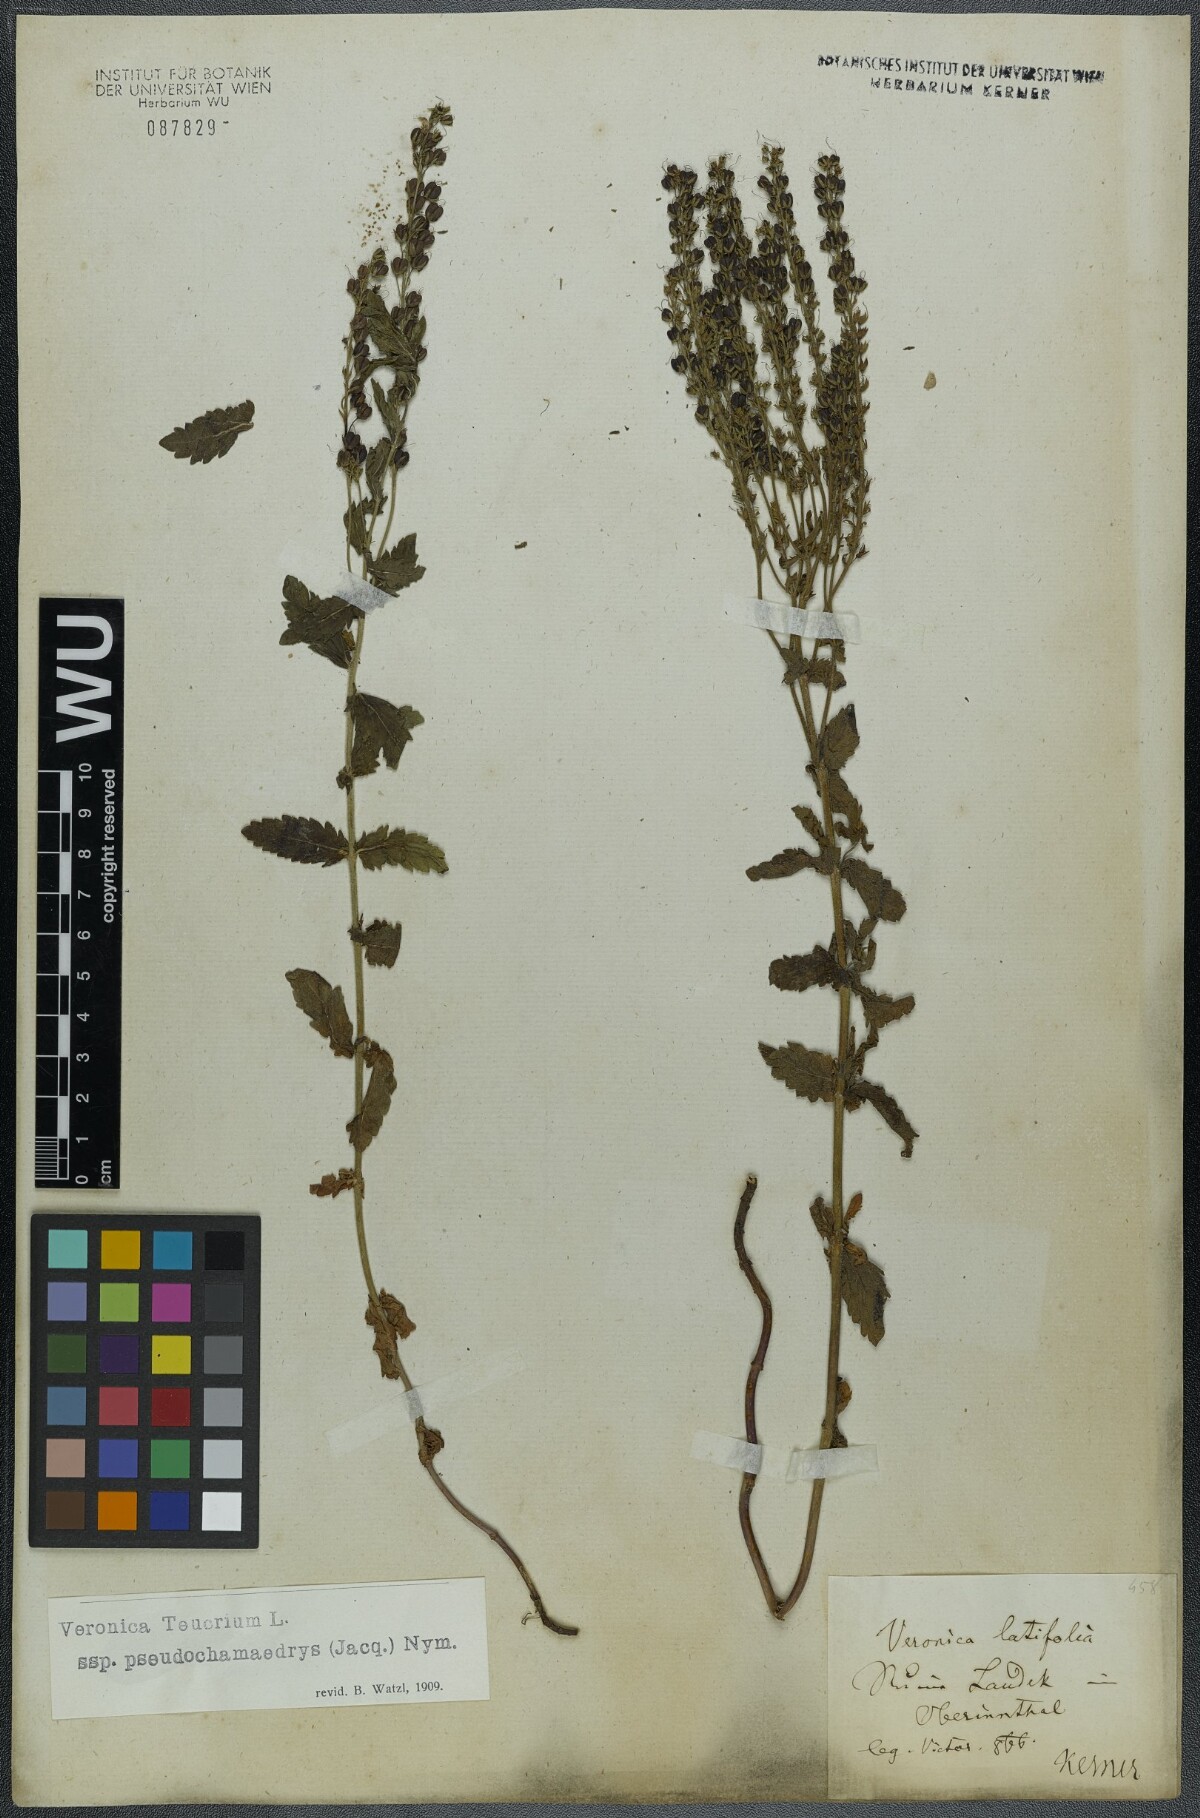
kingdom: Plantae
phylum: Tracheophyta
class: Magnoliopsida
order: Lamiales
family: Plantaginaceae
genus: Veronica
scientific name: Veronica teucrium
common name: Large speedwell
